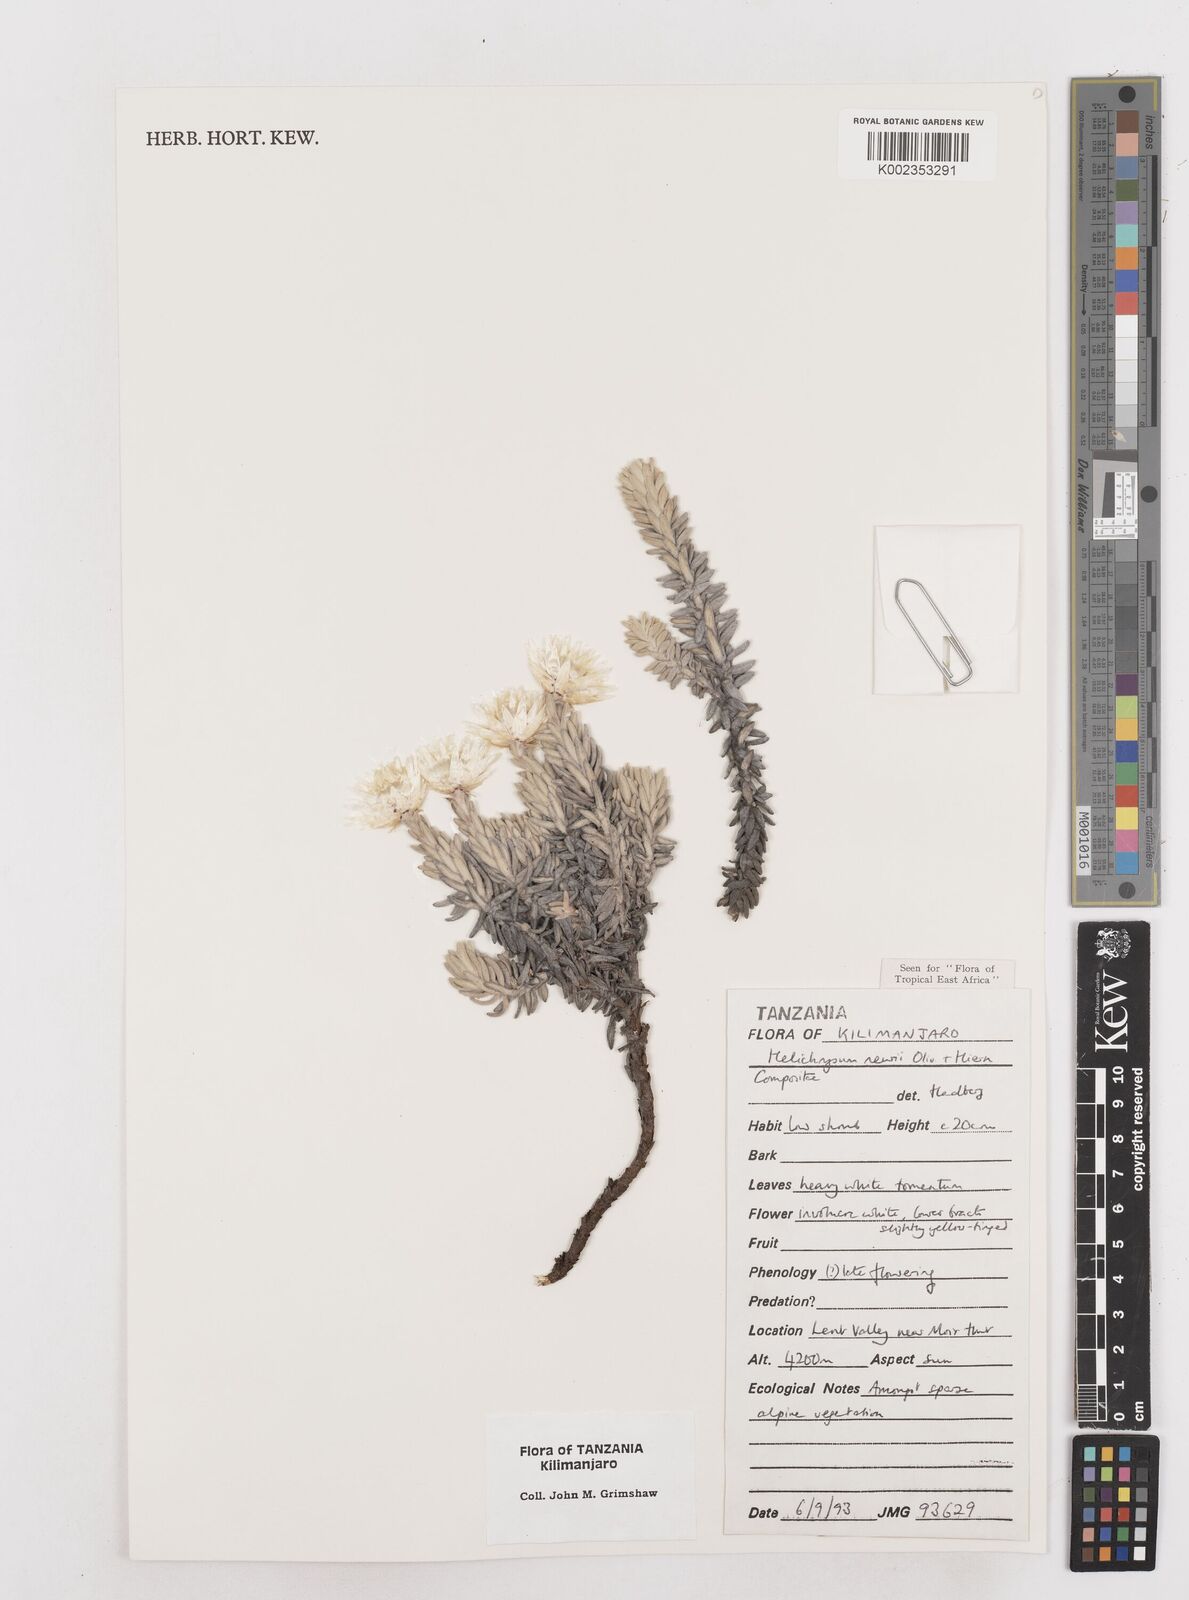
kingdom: Plantae
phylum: Tracheophyta
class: Magnoliopsida
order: Asterales
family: Asteraceae
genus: Helichrysum
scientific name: Helichrysum newii
